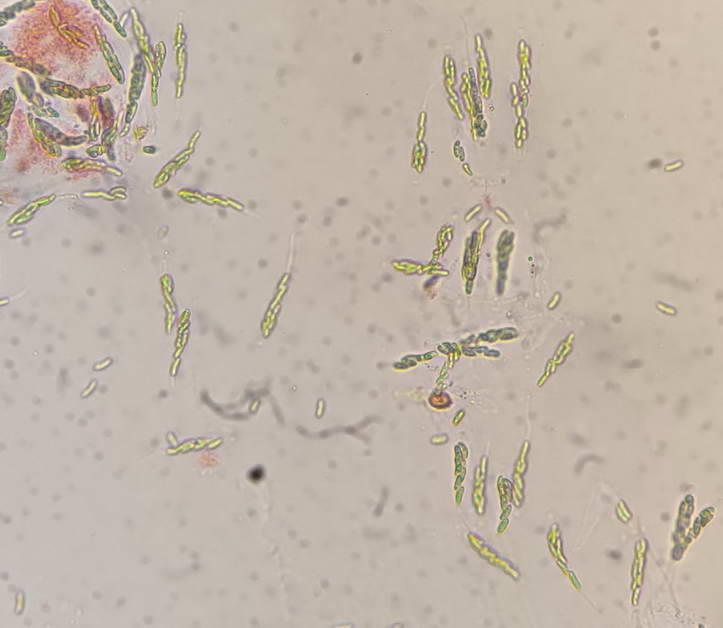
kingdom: Fungi
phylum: Ascomycota
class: Sordariomycetes
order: Xylariales
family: Diatrypaceae
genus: Eutypella
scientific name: Eutypella cerviculata
